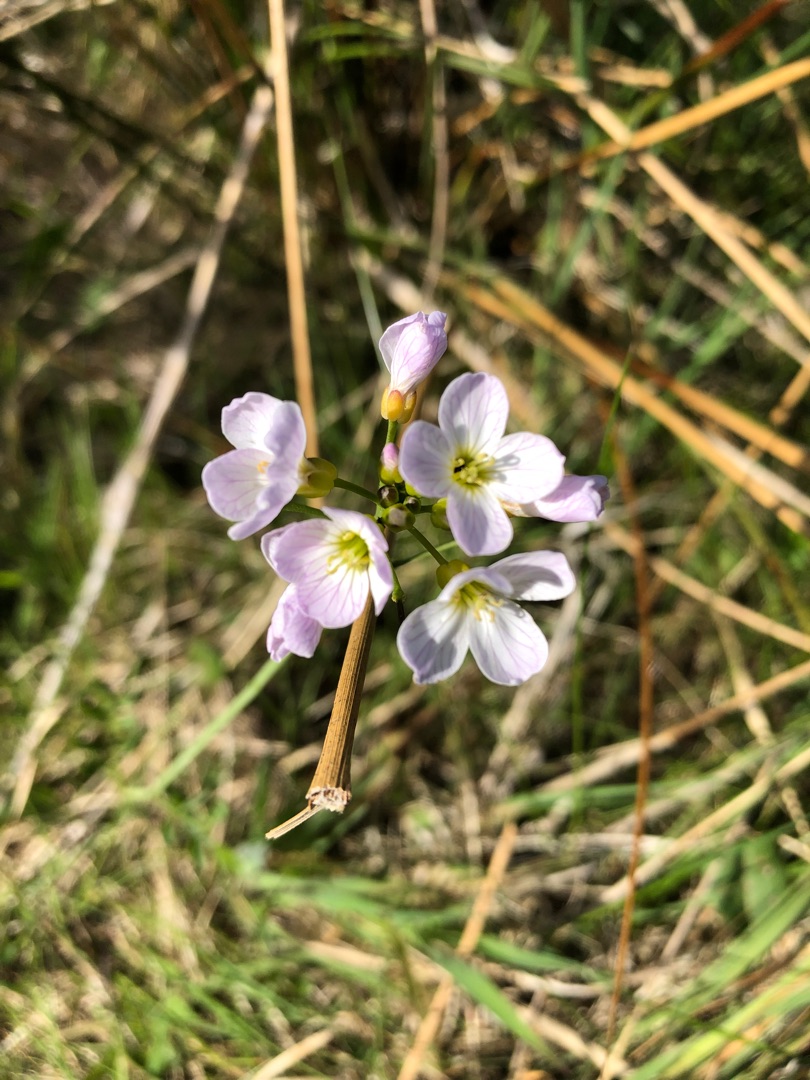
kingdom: Plantae
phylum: Tracheophyta
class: Magnoliopsida
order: Brassicales
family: Brassicaceae
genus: Cardamine
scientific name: Cardamine pratensis
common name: Engkarse
